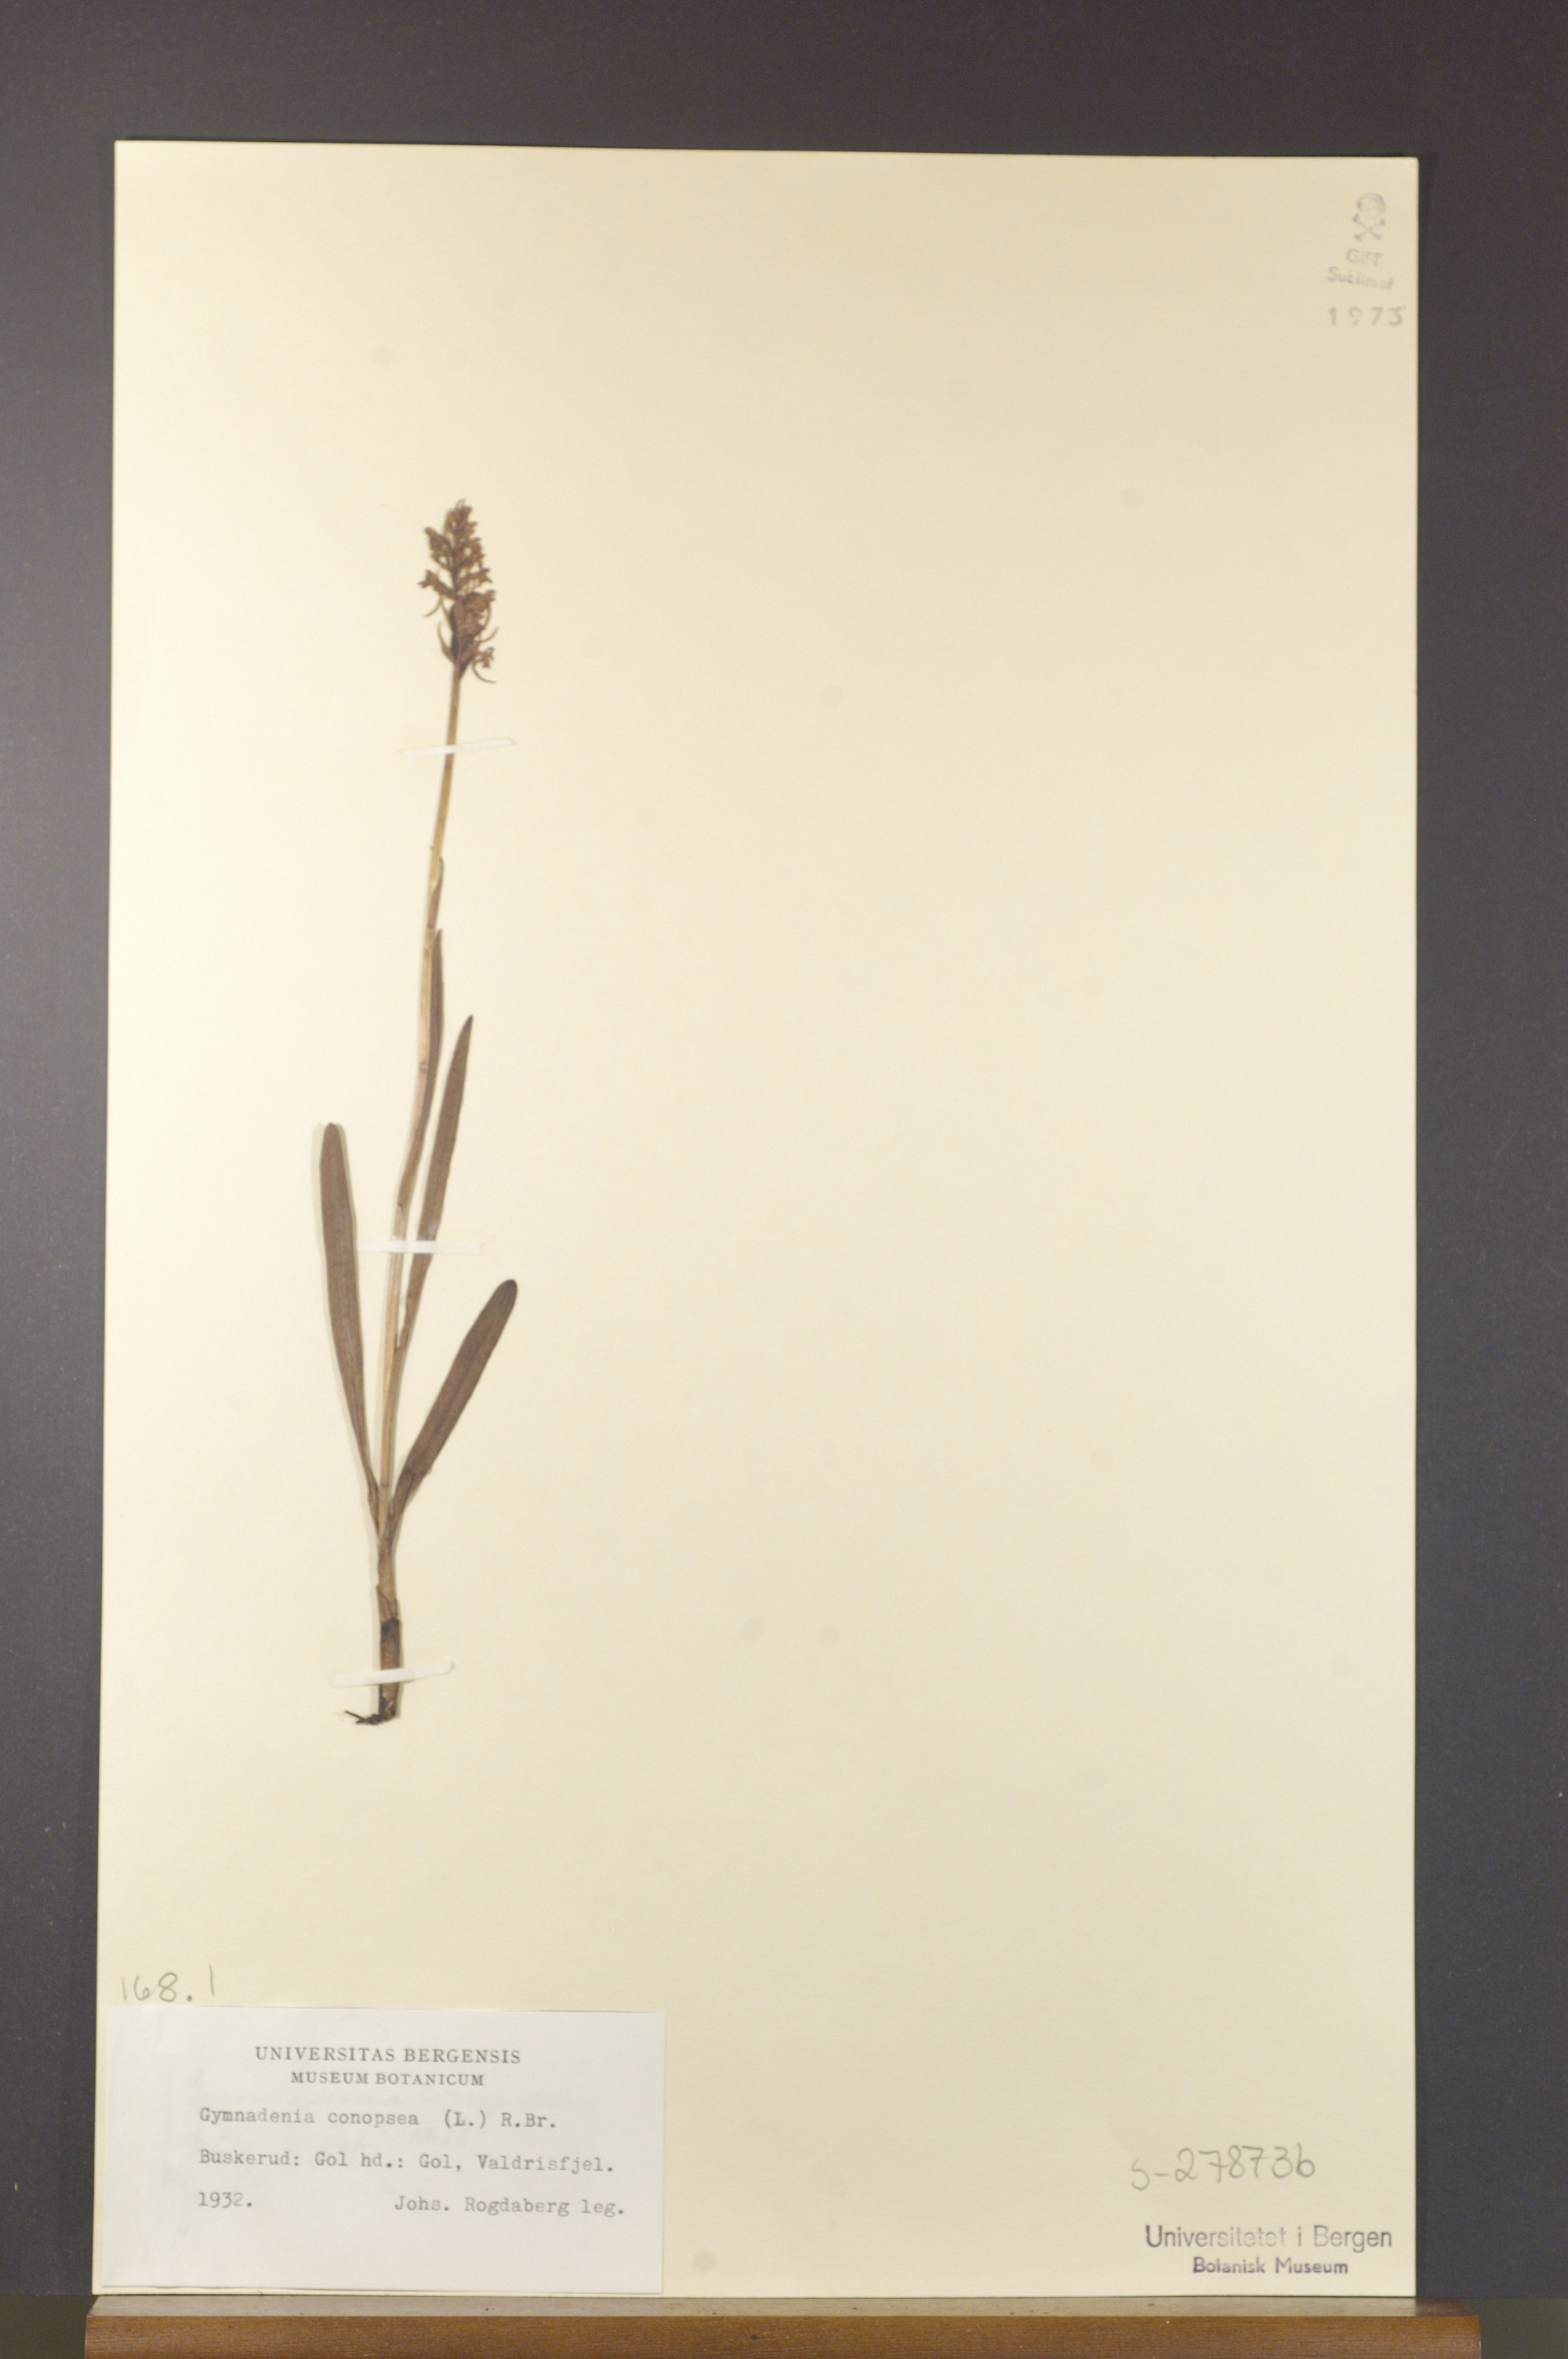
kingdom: Plantae
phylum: Tracheophyta
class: Liliopsida
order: Asparagales
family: Orchidaceae
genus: Gymnadenia
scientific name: Gymnadenia conopsea
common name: Fragrant orchid
